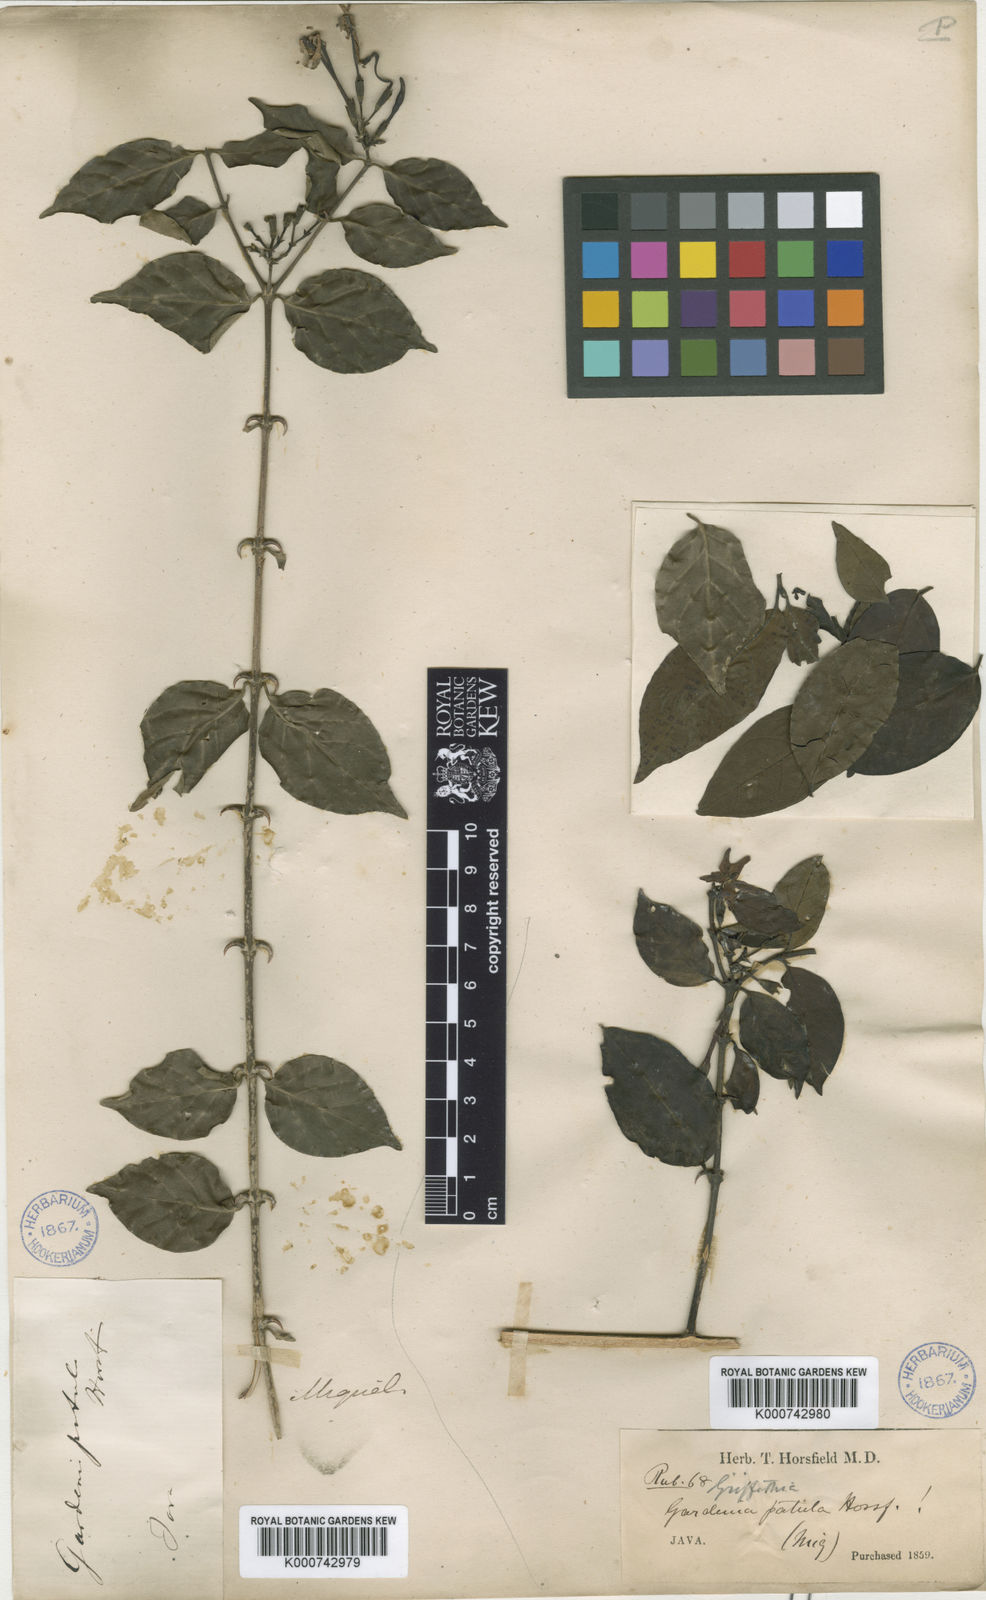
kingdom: Plantae
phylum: Tracheophyta
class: Magnoliopsida
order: Gentianales
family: Rubiaceae
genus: Oxyceros
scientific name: Oxyceros patulus
